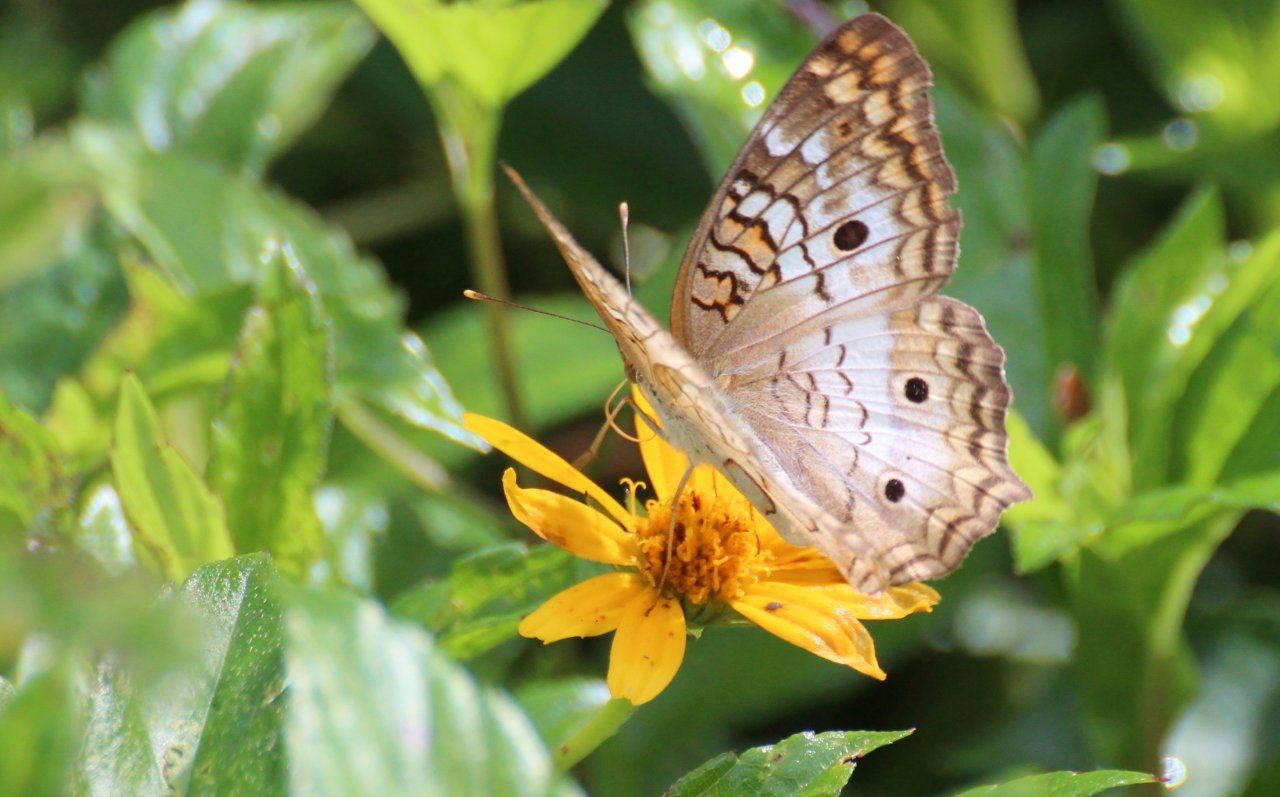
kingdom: Animalia
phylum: Arthropoda
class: Insecta
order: Lepidoptera
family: Nymphalidae
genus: Anartia
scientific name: Anartia jatrophae
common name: White Peacock
